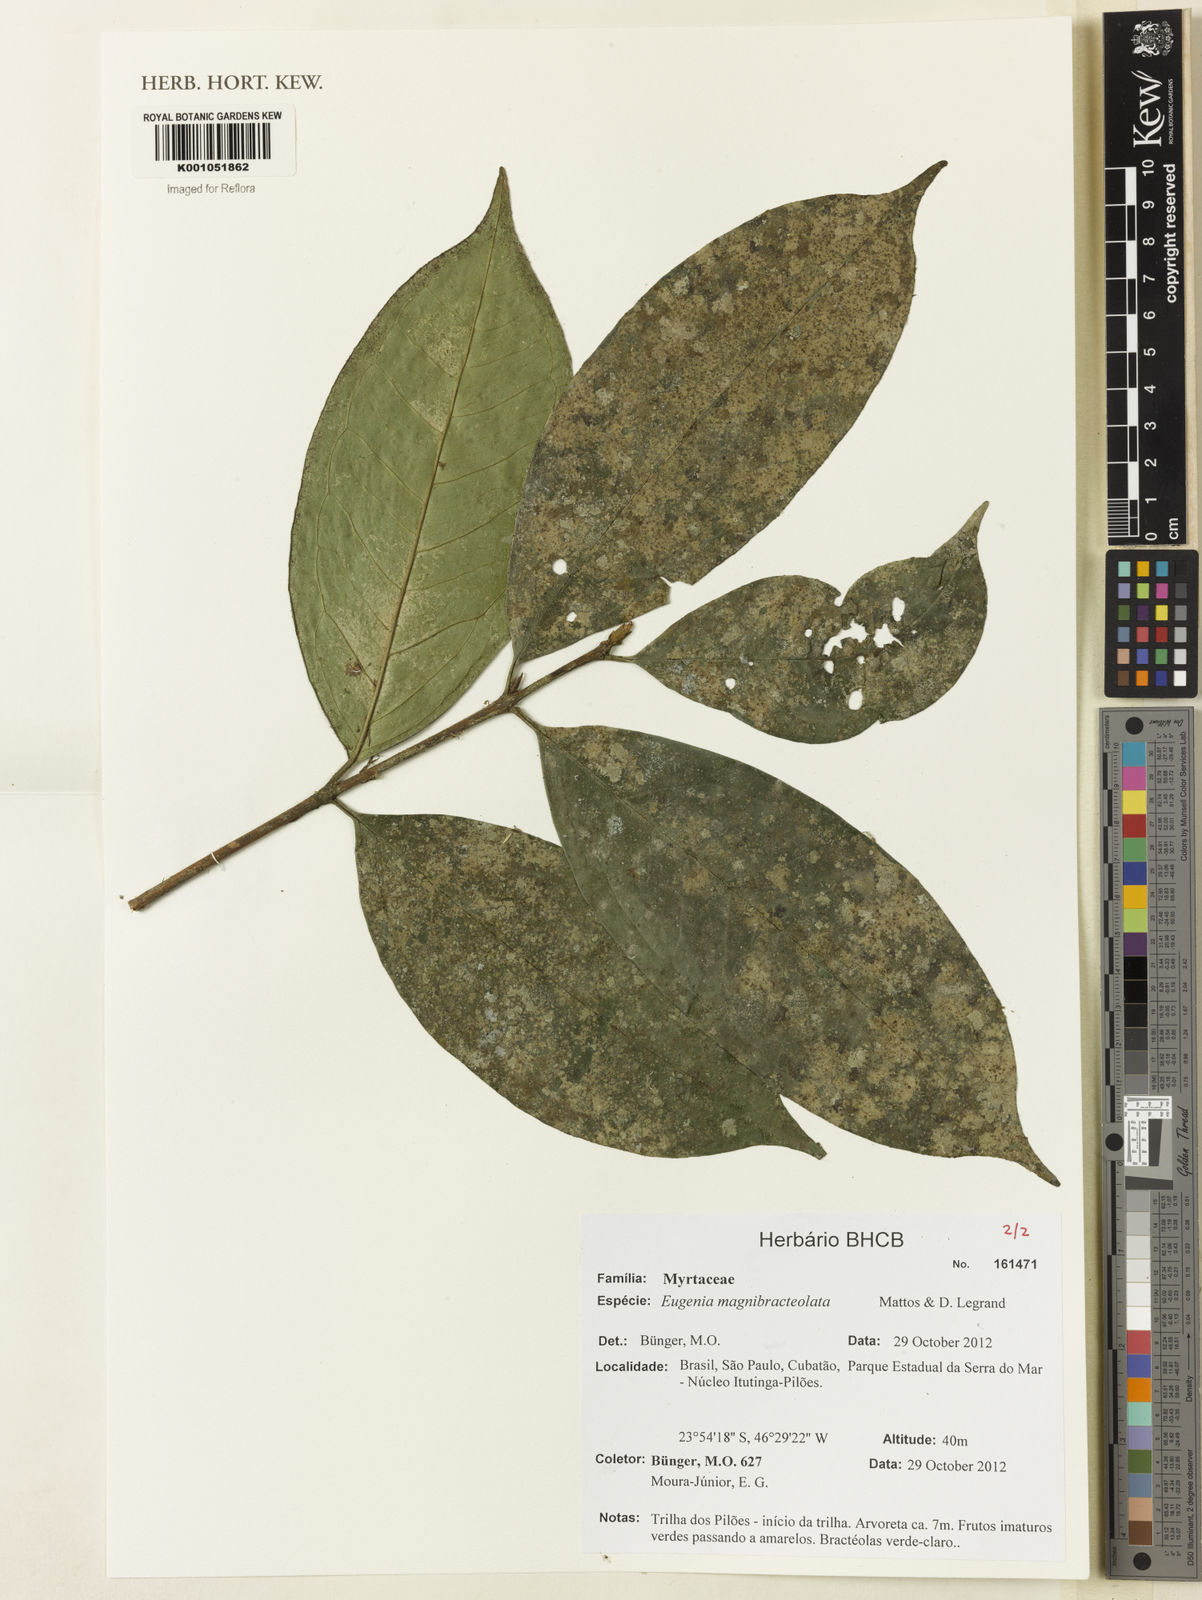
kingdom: Plantae
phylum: Tracheophyta
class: Magnoliopsida
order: Myrtales
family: Myrtaceae
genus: Eugenia
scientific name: Eugenia magnibracteolata
